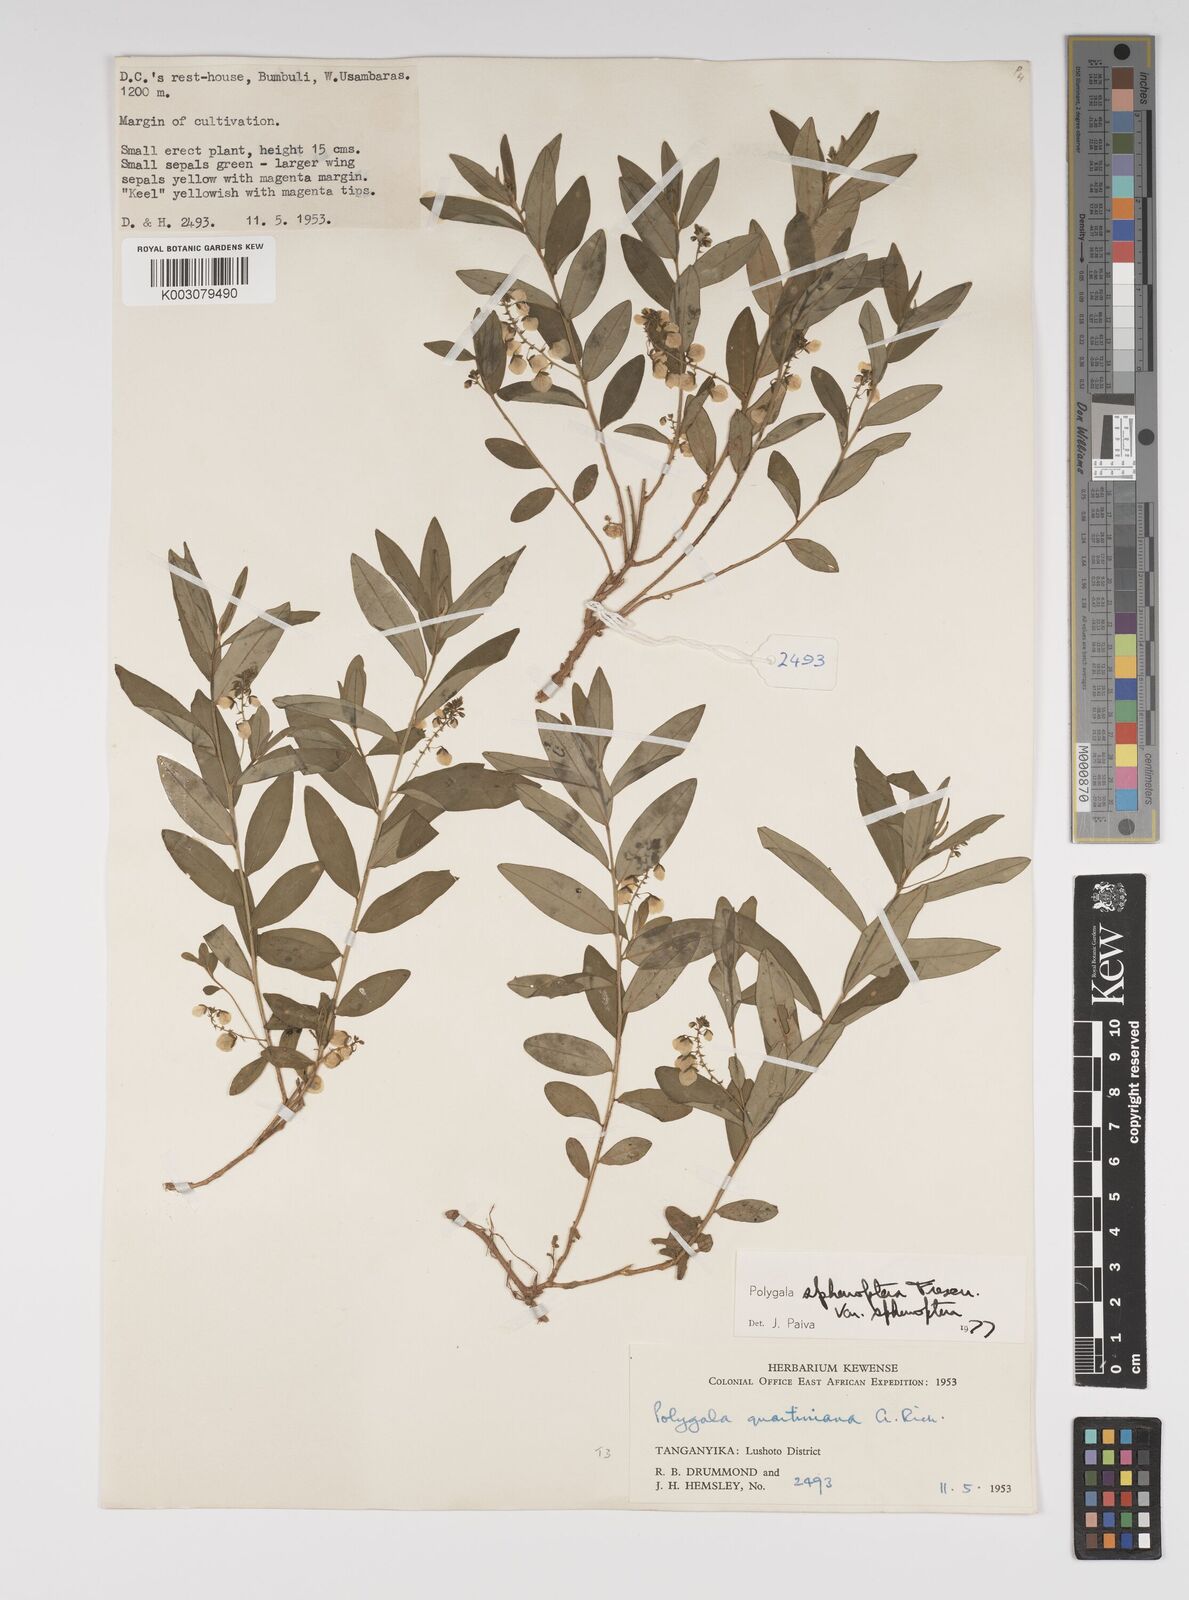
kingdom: Plantae
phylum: Tracheophyta
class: Magnoliopsida
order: Fabales
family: Polygalaceae
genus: Polygala
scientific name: Polygala sphenoptera
